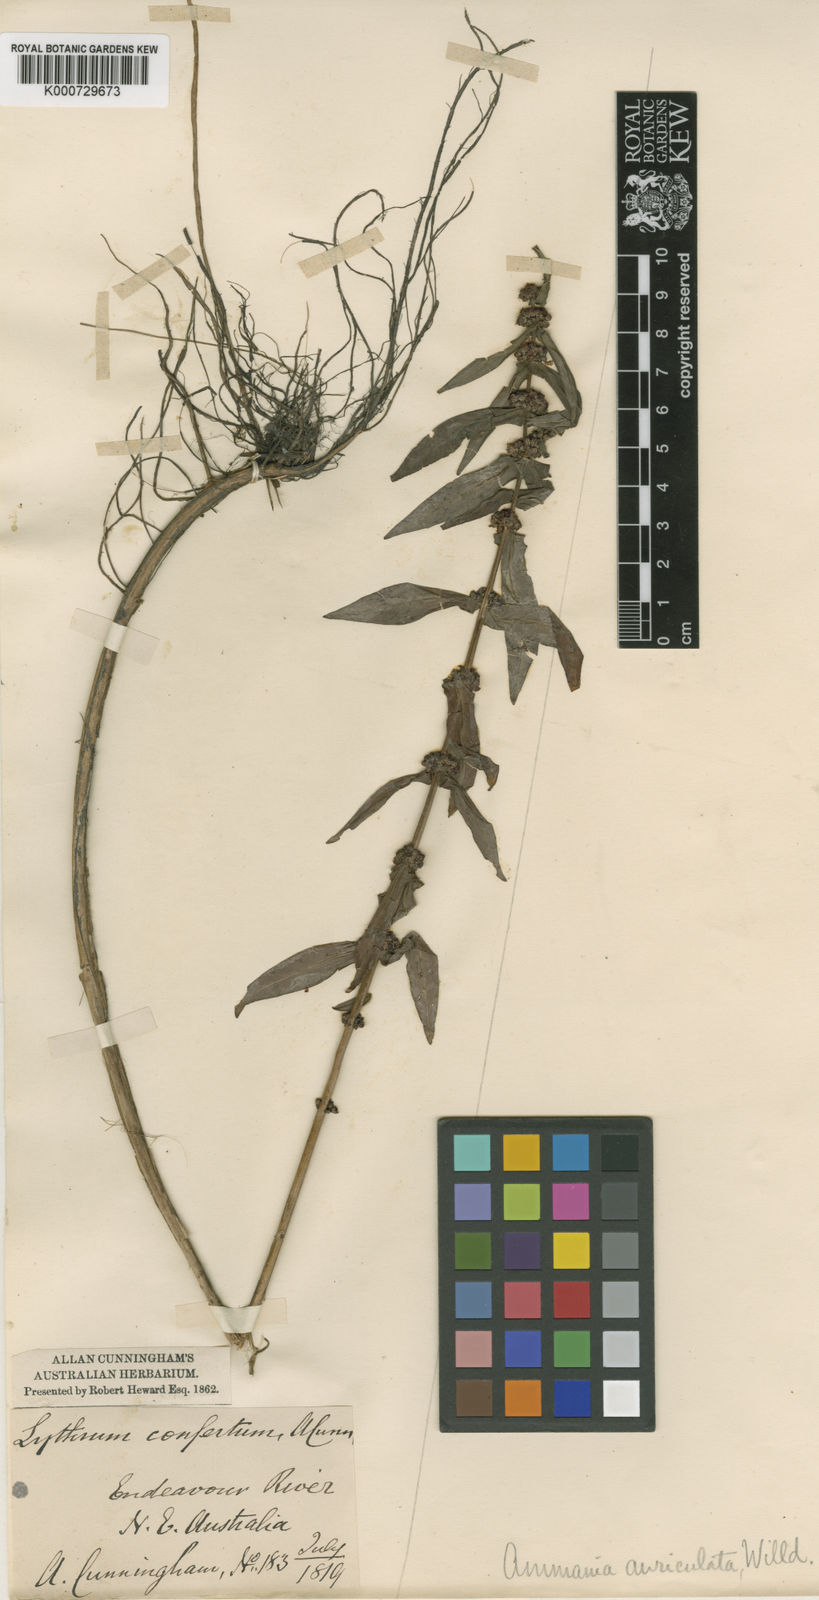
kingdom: Plantae
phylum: Tracheophyta
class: Magnoliopsida
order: Myrtales
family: Lythraceae
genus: Ammannia
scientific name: Ammannia auriculata
